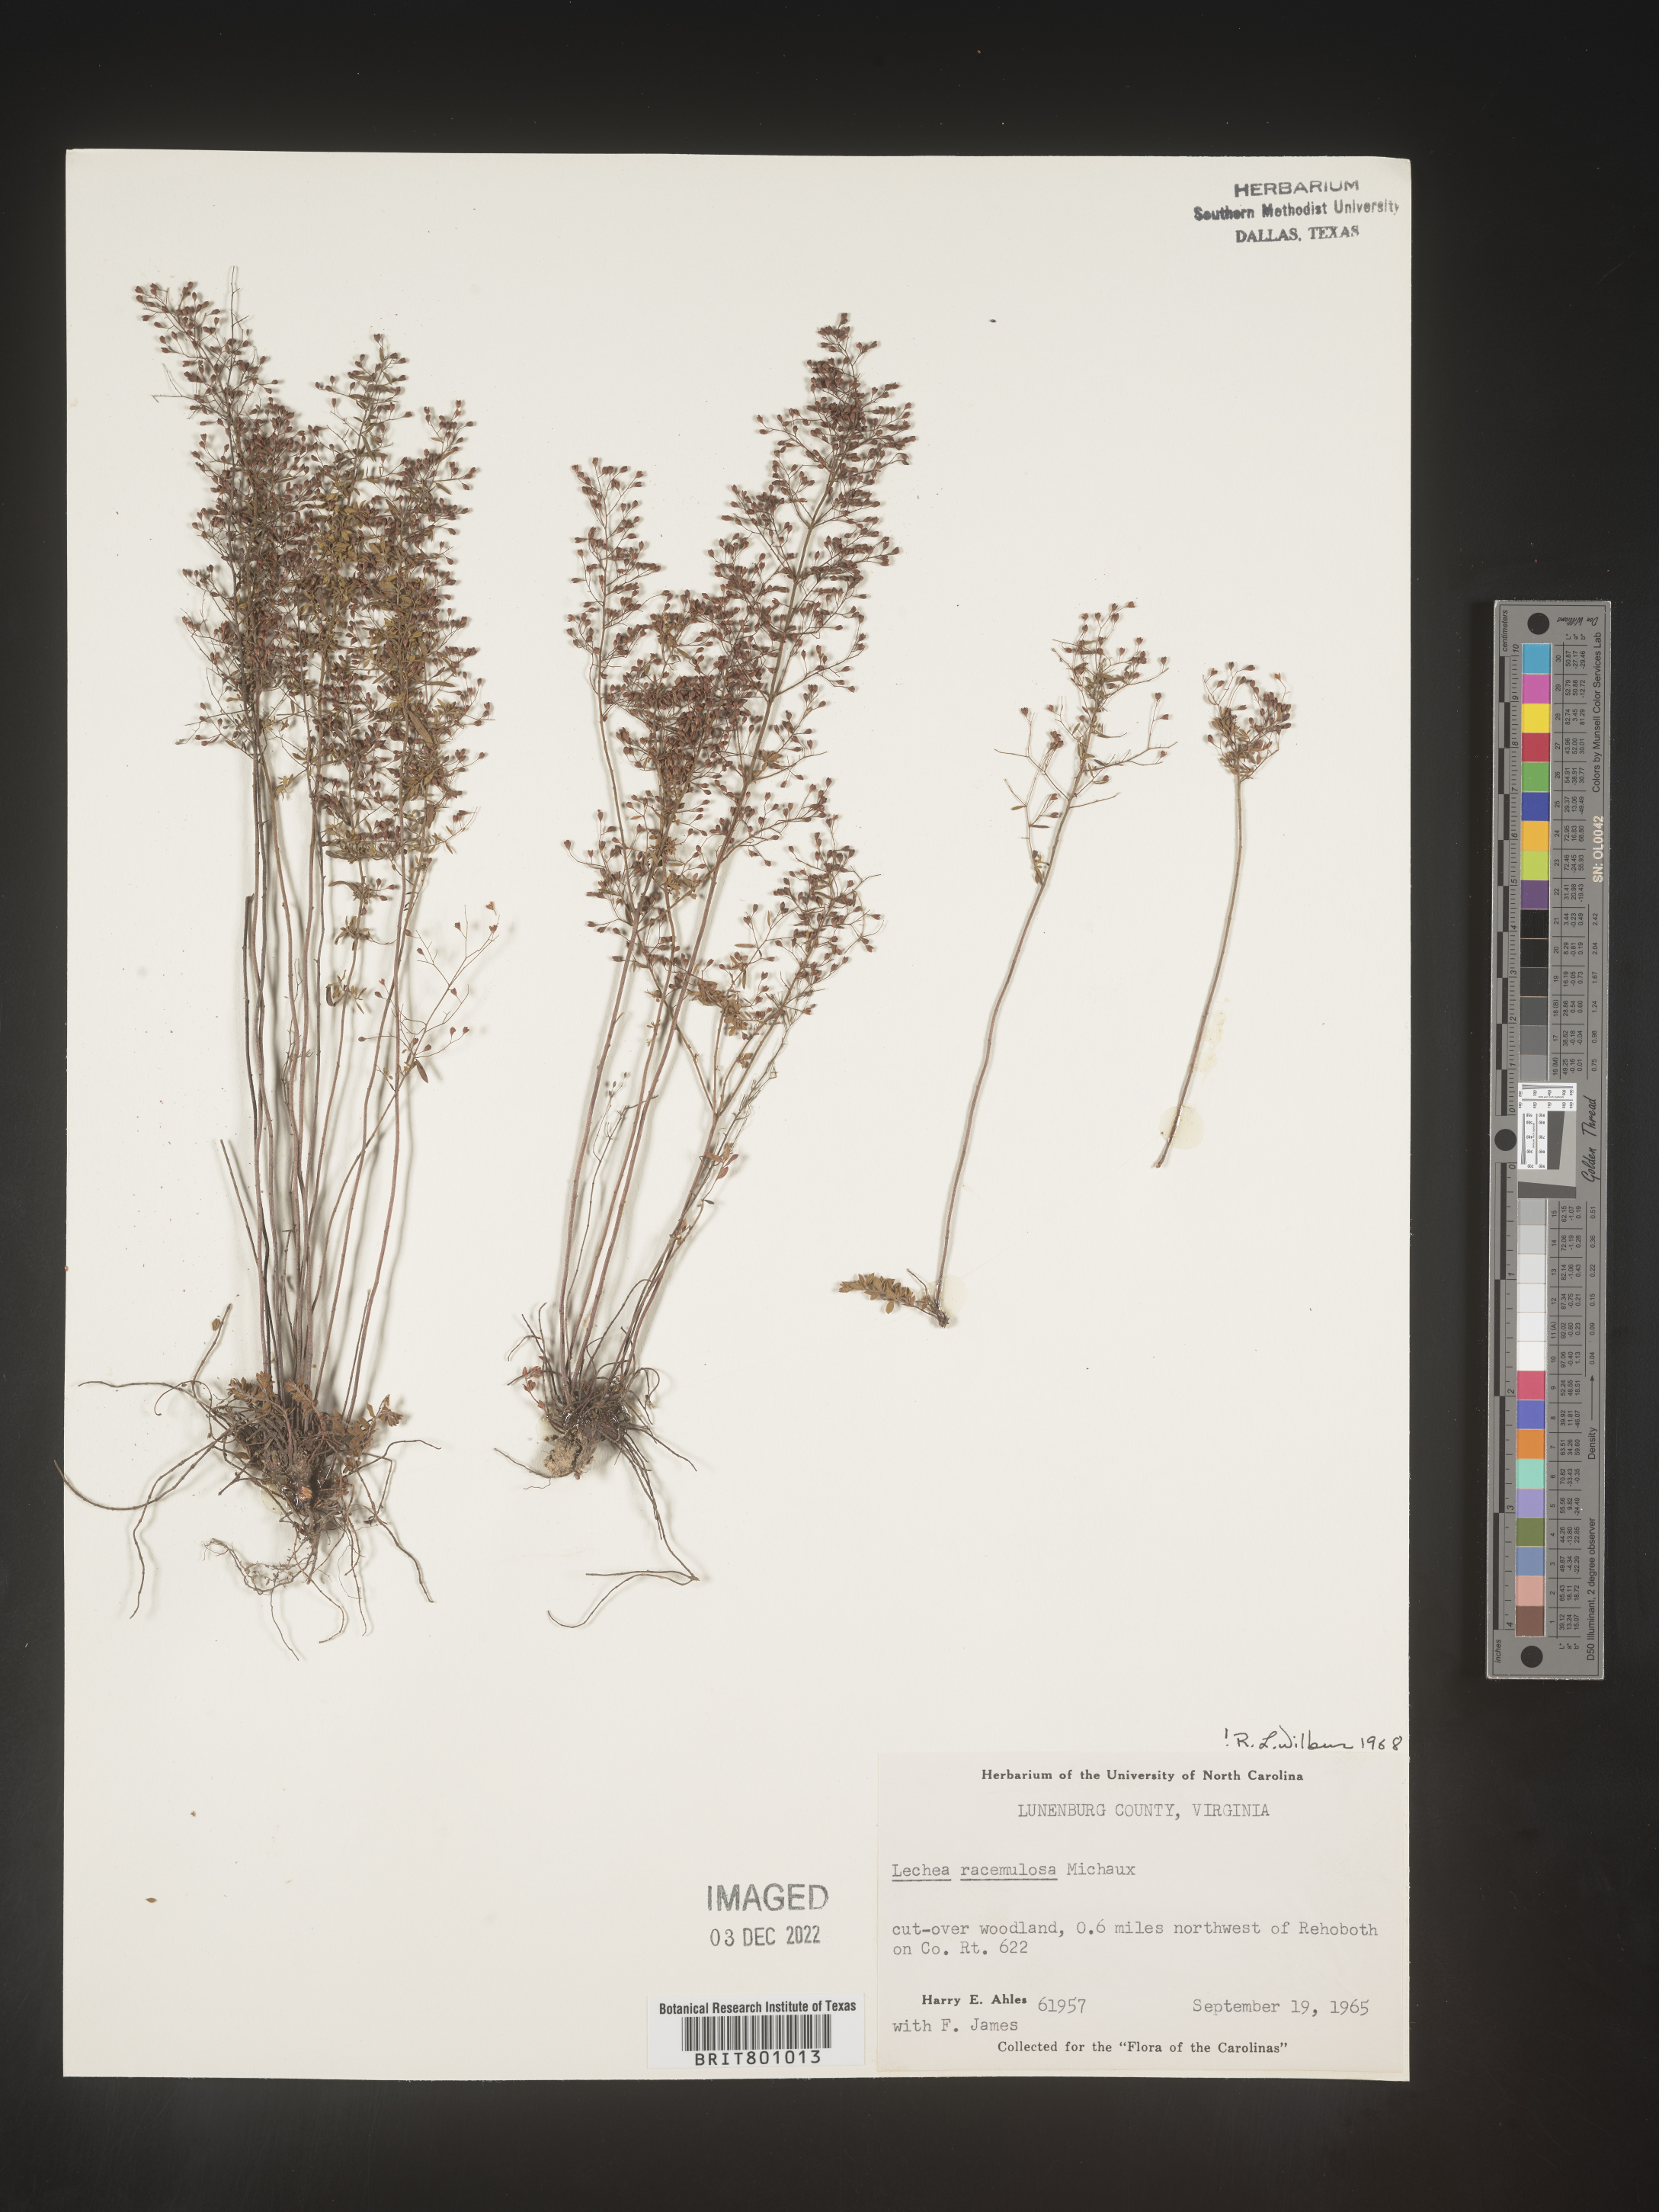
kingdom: Plantae
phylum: Tracheophyta
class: Magnoliopsida
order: Malvales
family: Cistaceae
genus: Lechea
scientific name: Lechea racemulosa
